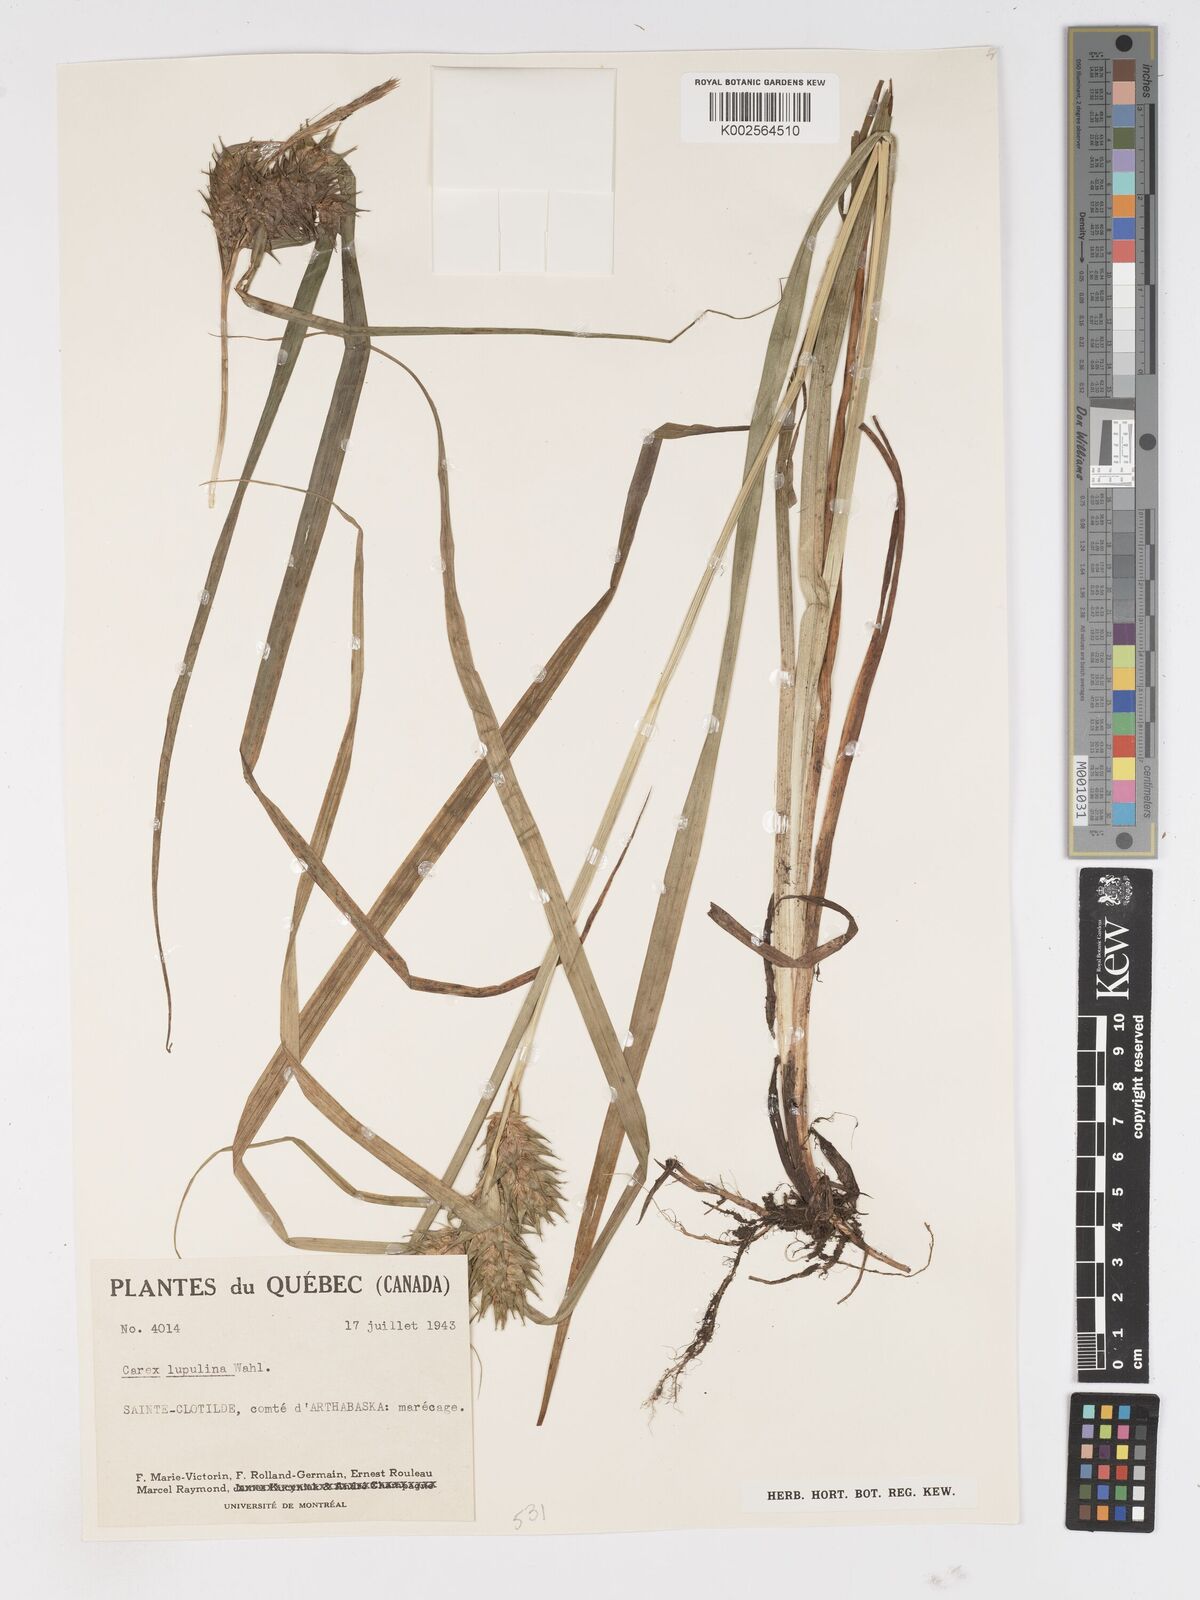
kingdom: Plantae
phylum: Tracheophyta
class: Liliopsida
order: Poales
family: Cyperaceae
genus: Carex
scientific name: Carex lupulina
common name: Hop sedge
